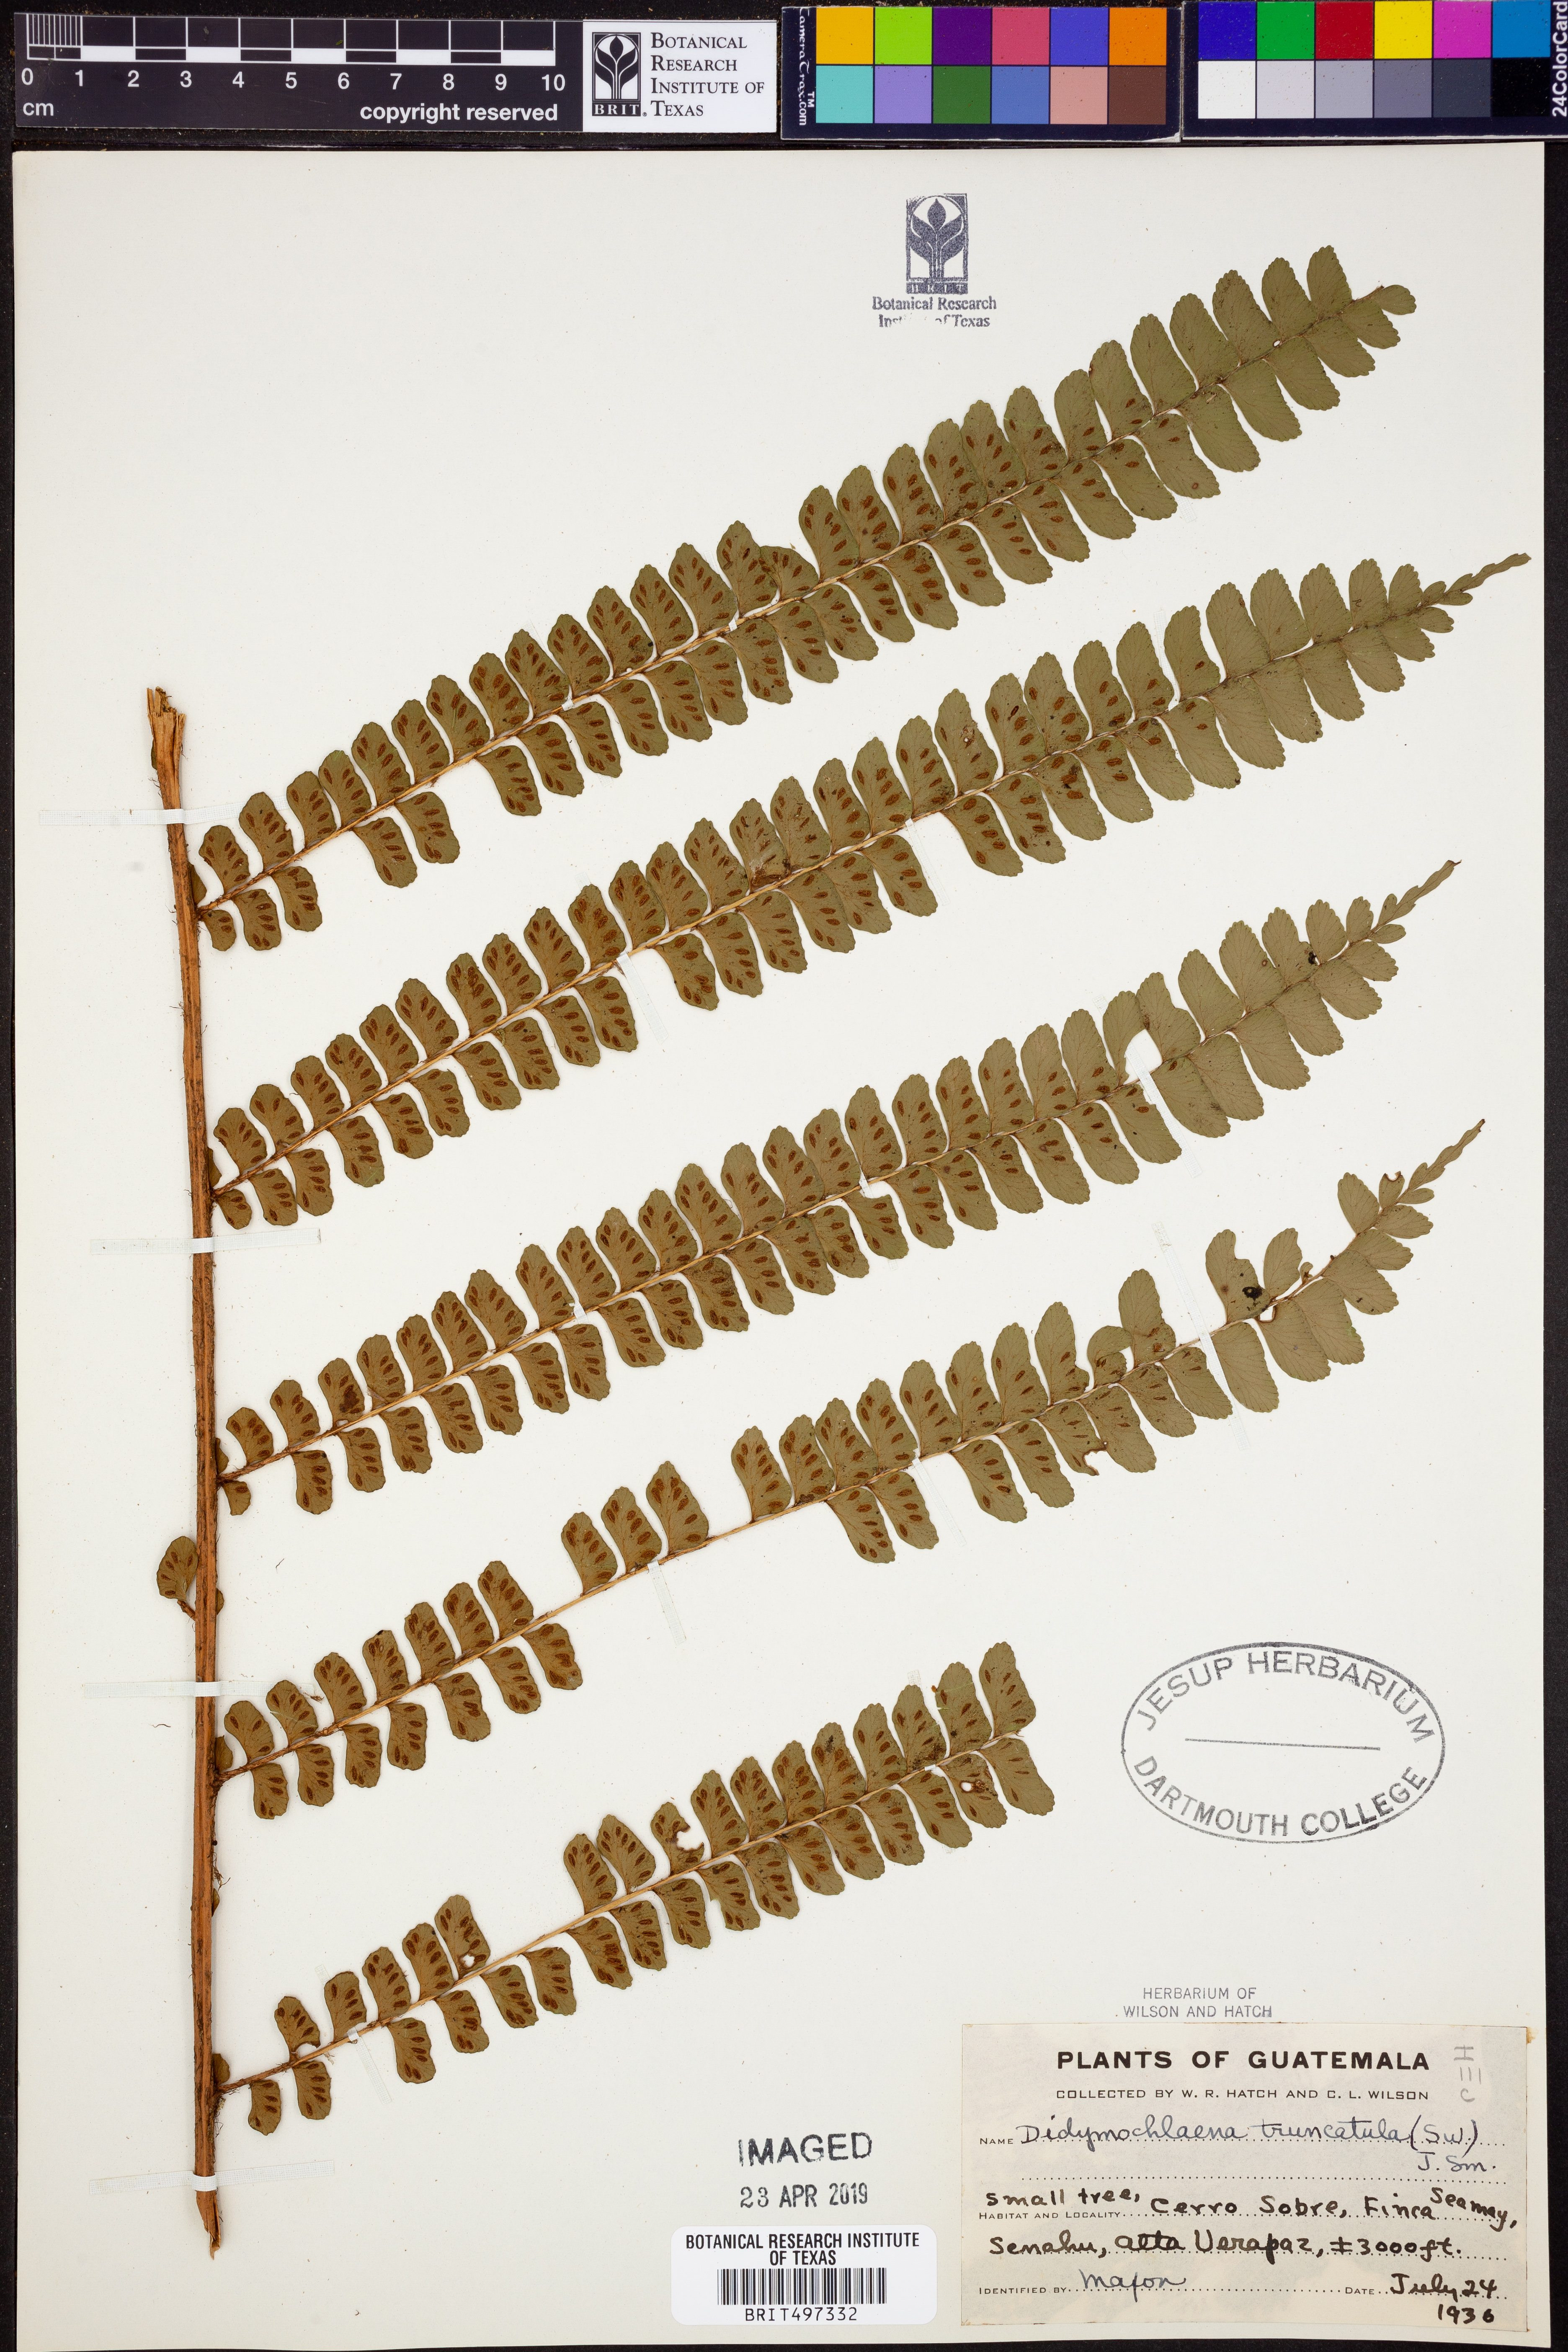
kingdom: Plantae
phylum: Tracheophyta
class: Polypodiopsida
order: Polypodiales
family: Didymochlaenaceae
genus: Didymochlaena
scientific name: Didymochlaena truncatula
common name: Mahogany fern
